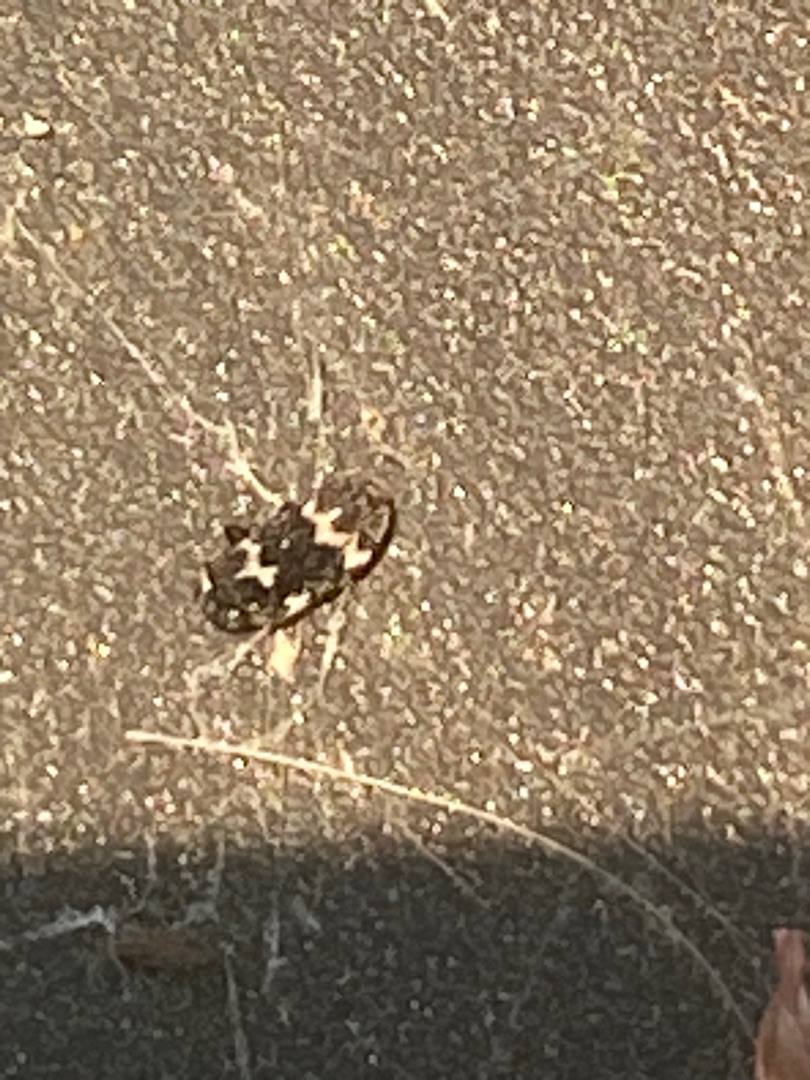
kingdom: Animalia
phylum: Arthropoda
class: Insecta
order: Coleoptera
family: Dermestidae
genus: Megatoma
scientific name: Megatoma undata
